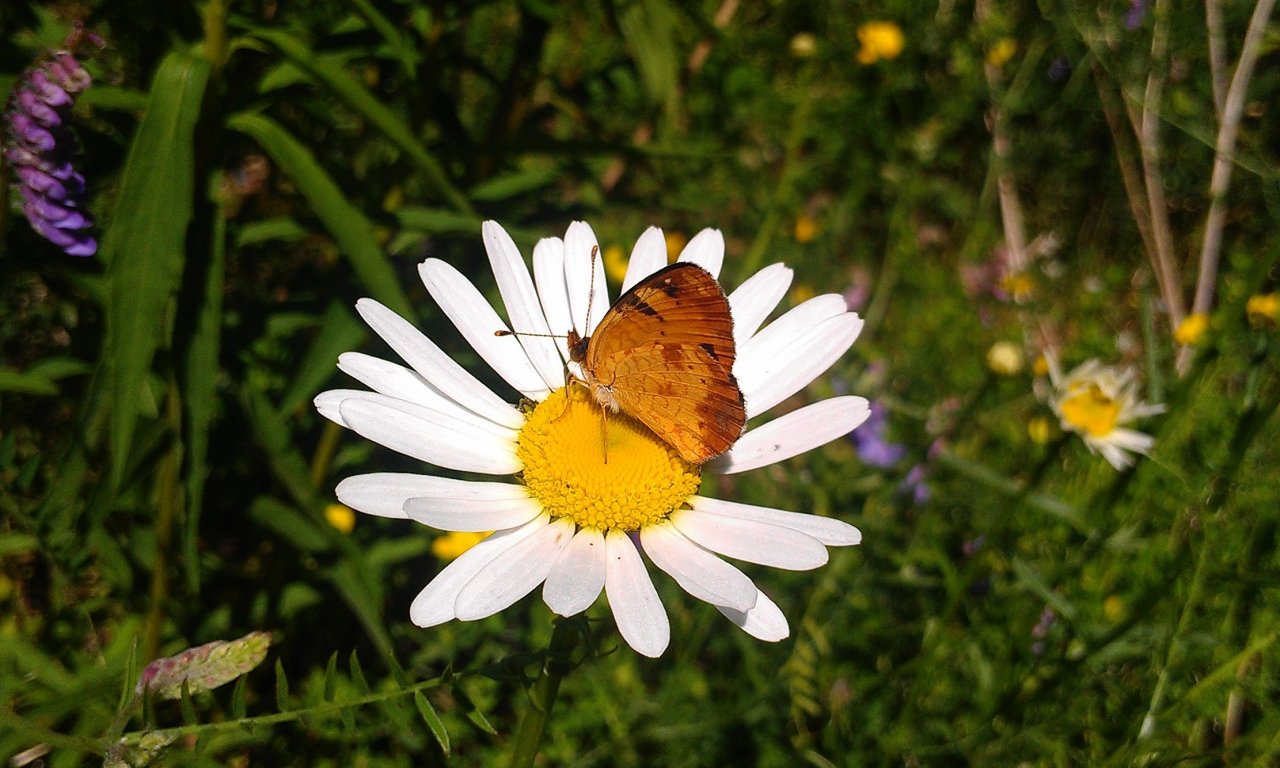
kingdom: Animalia
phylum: Arthropoda
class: Insecta
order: Lepidoptera
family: Nymphalidae
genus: Phyciodes
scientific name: Phyciodes tharos
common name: Northern Crescent
